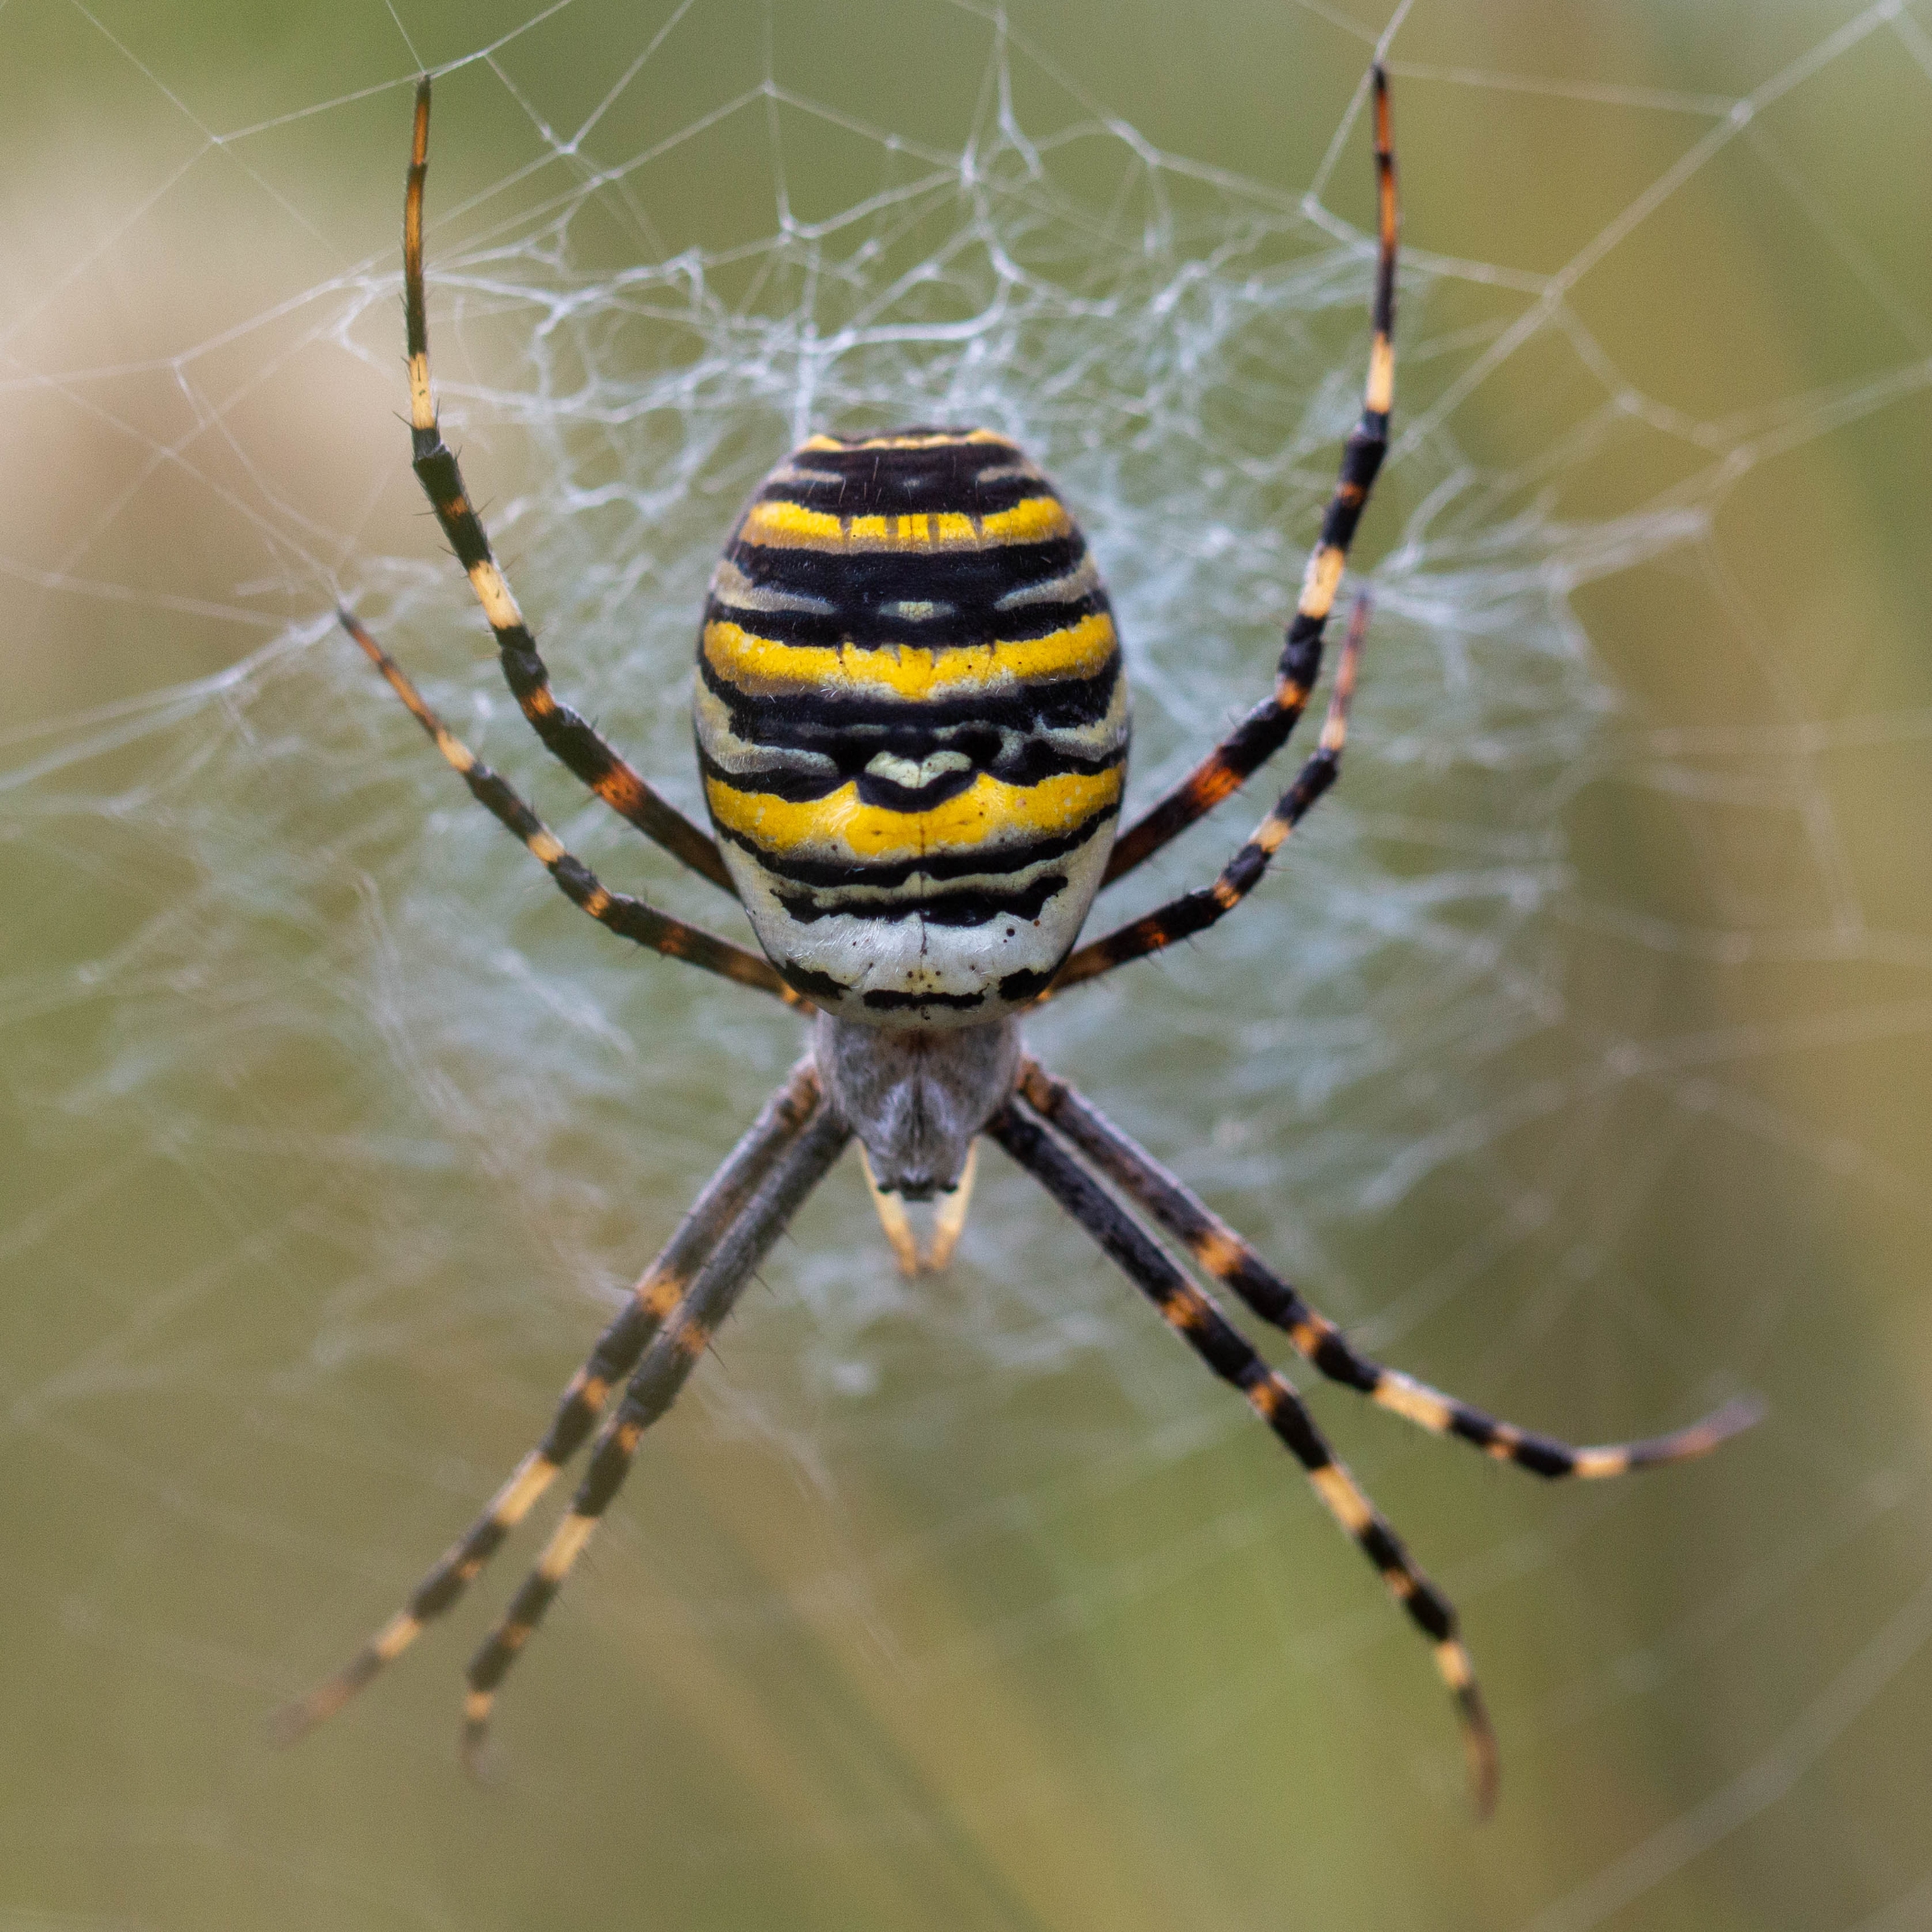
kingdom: Animalia
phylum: Arthropoda
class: Arachnida
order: Araneae
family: Araneidae
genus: Argiope
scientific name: Argiope bruennichi
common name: Hvepseedderkop
